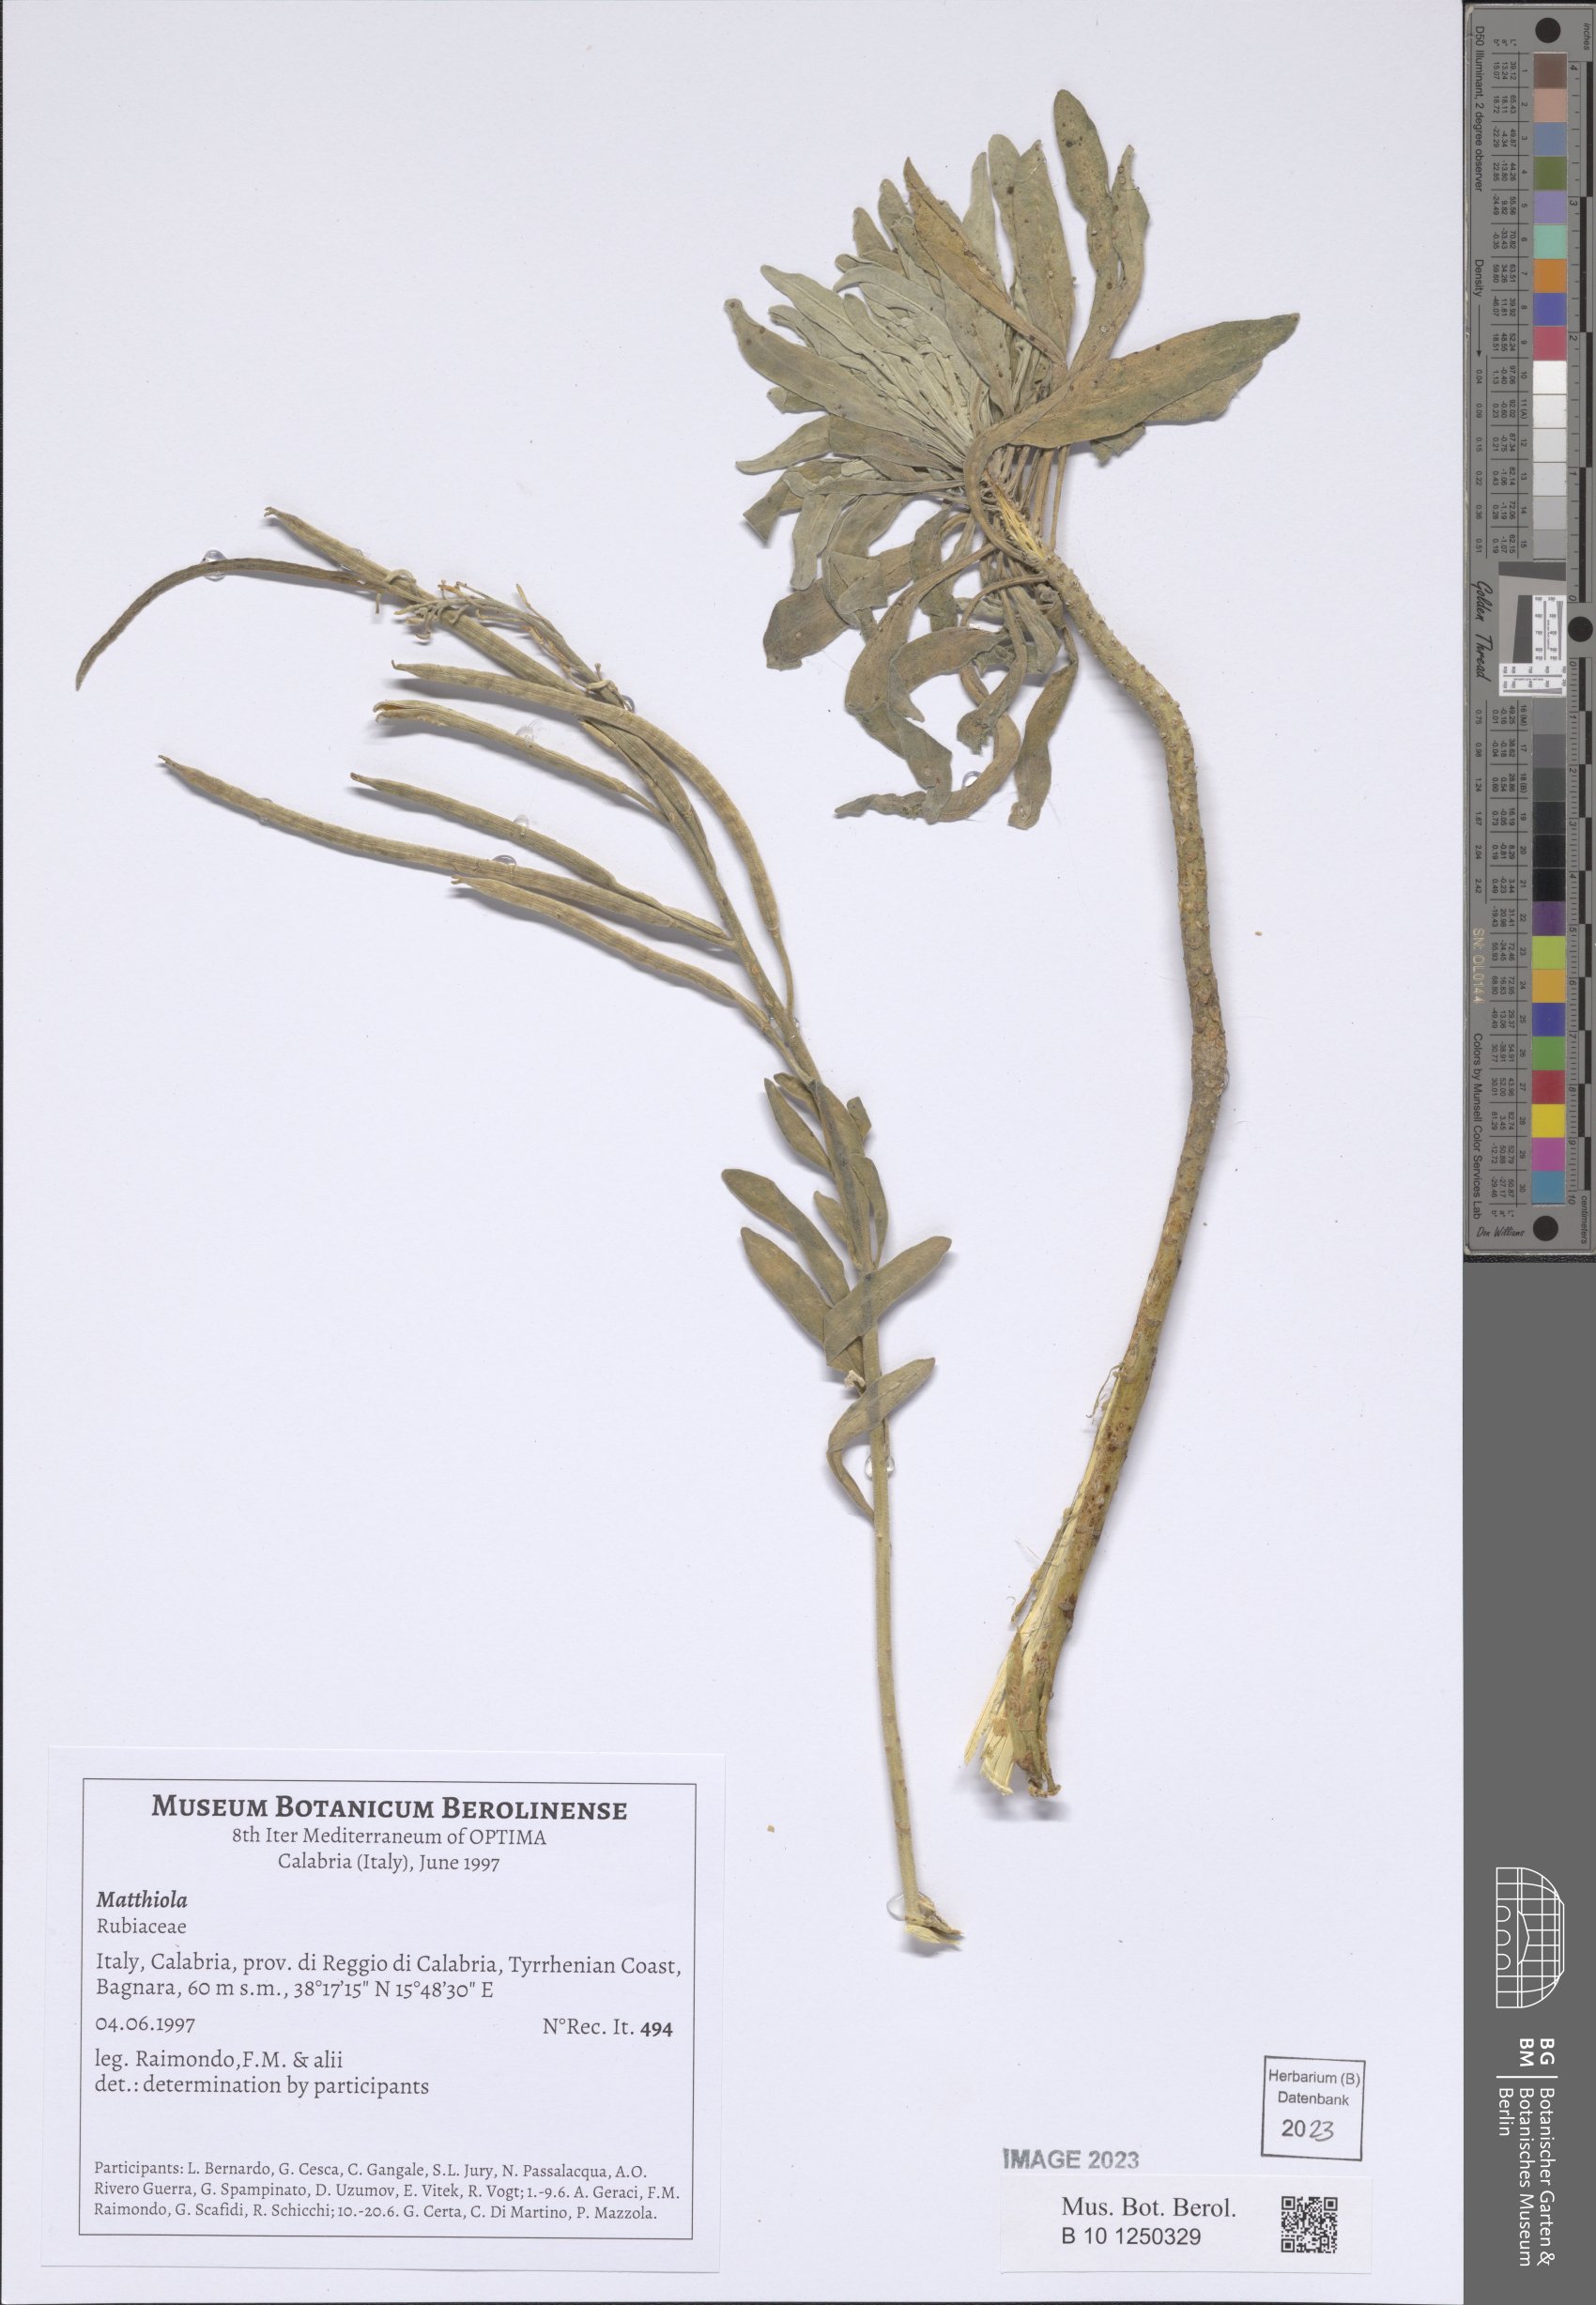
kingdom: Plantae
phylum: Tracheophyta
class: Magnoliopsida
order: Brassicales
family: Brassicaceae
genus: Matthiola
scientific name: Matthiola
